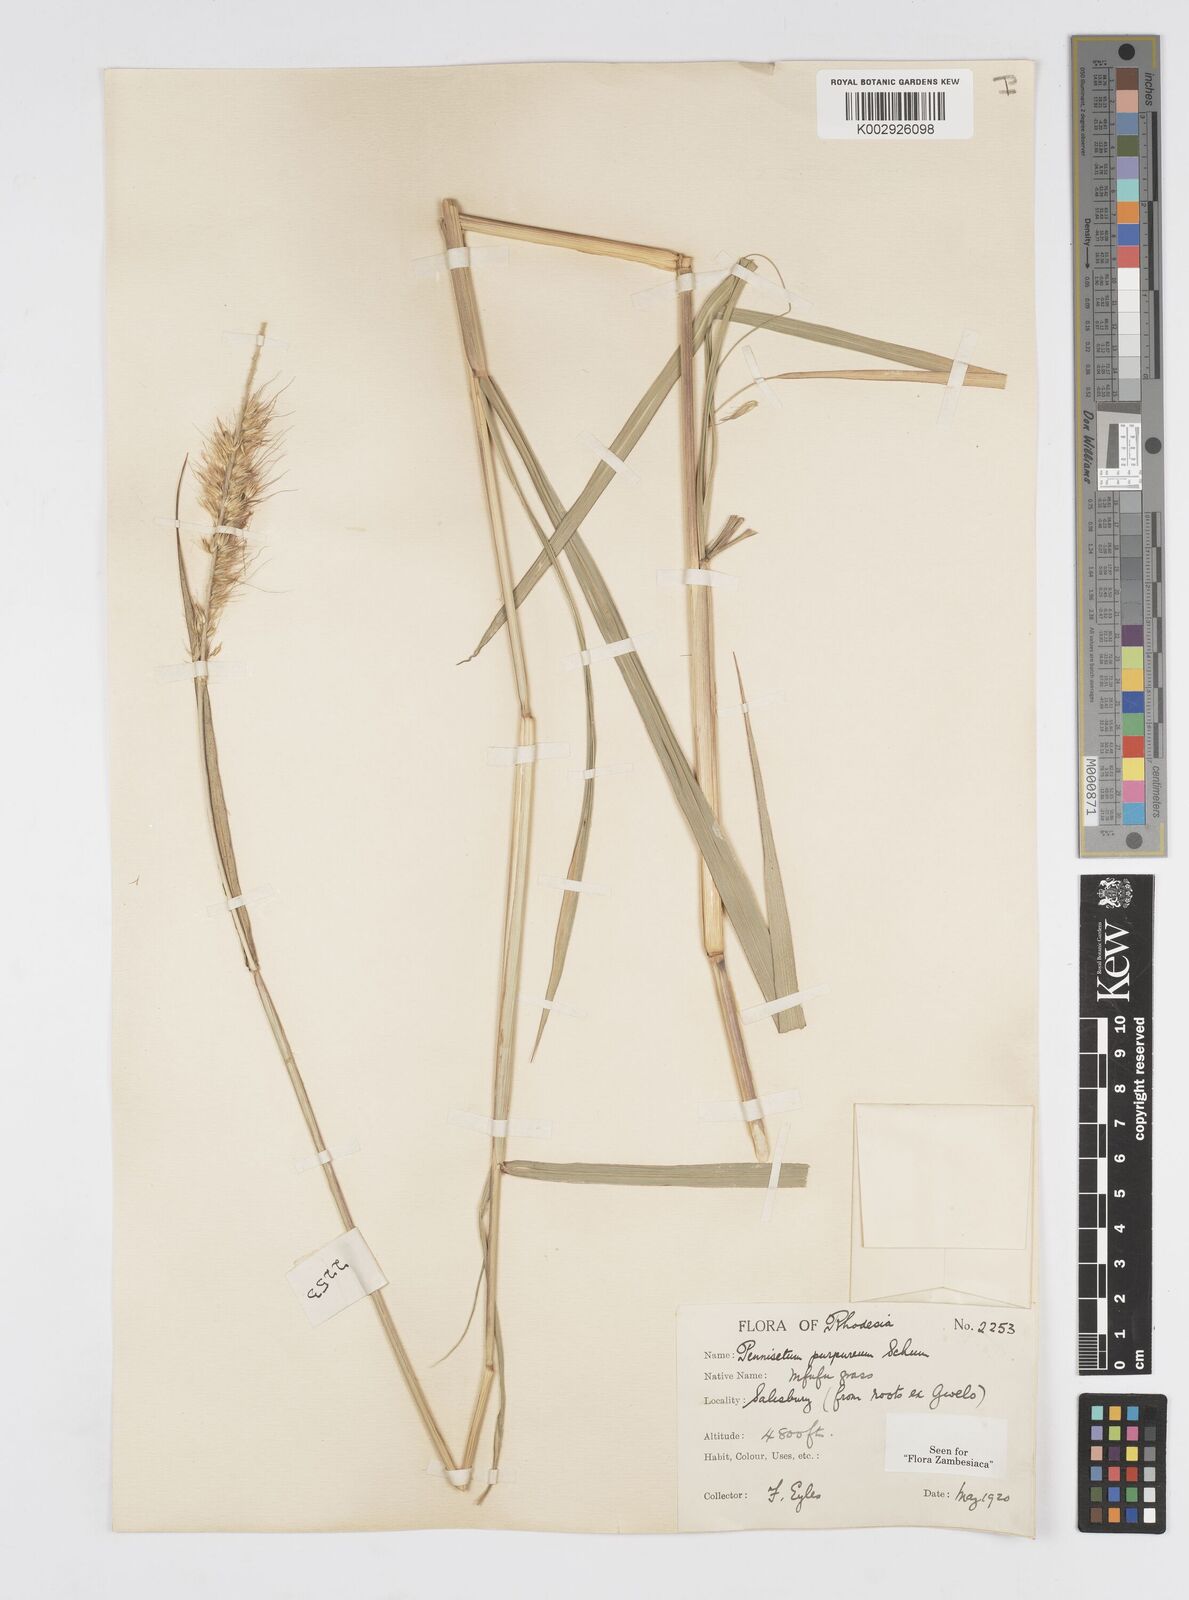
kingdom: Plantae
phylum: Tracheophyta
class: Liliopsida
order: Poales
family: Poaceae
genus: Cenchrus
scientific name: Cenchrus purpureus
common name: Elephant grass
